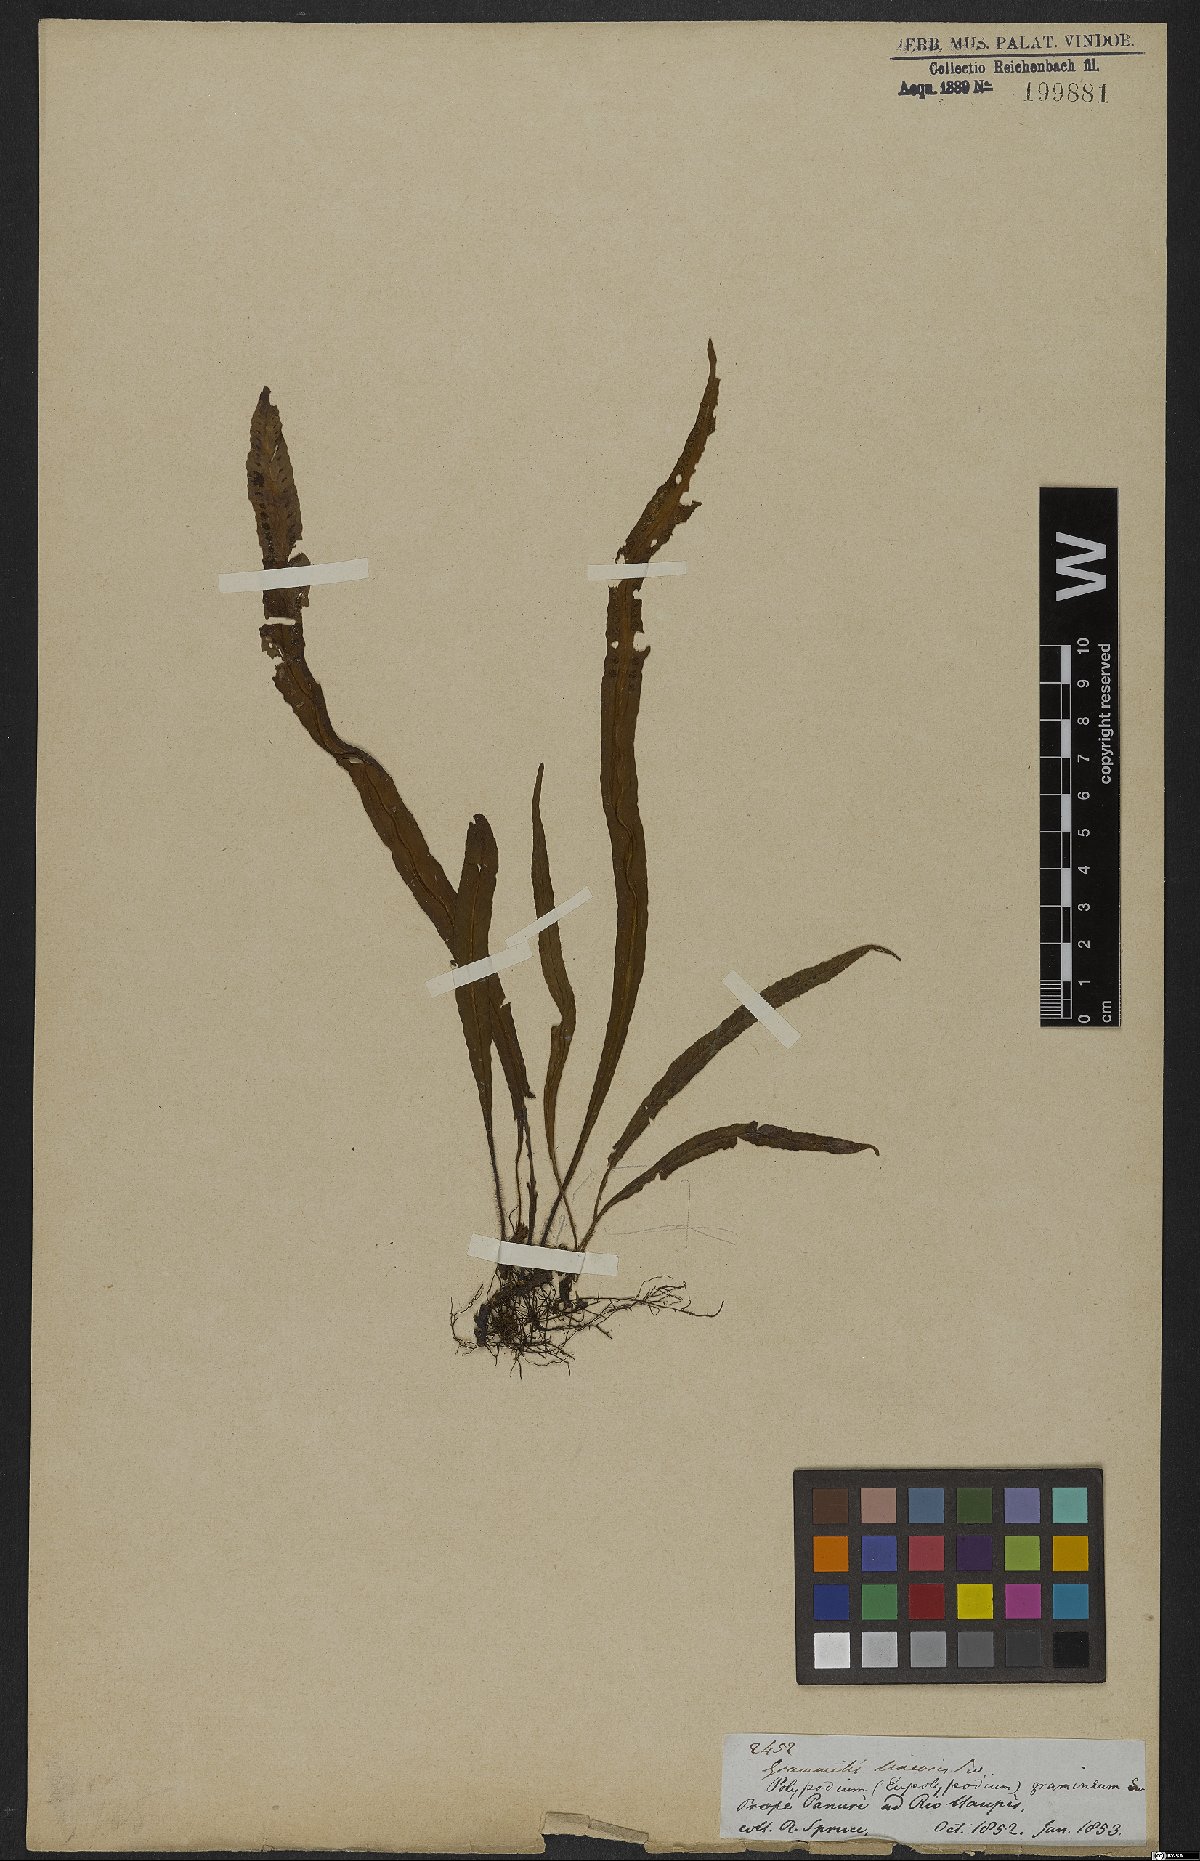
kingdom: Plantae
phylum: Tracheophyta
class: Polypodiopsida
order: Polypodiales
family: Polypodiaceae
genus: Lomaphlebia
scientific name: Lomaphlebia linearis
